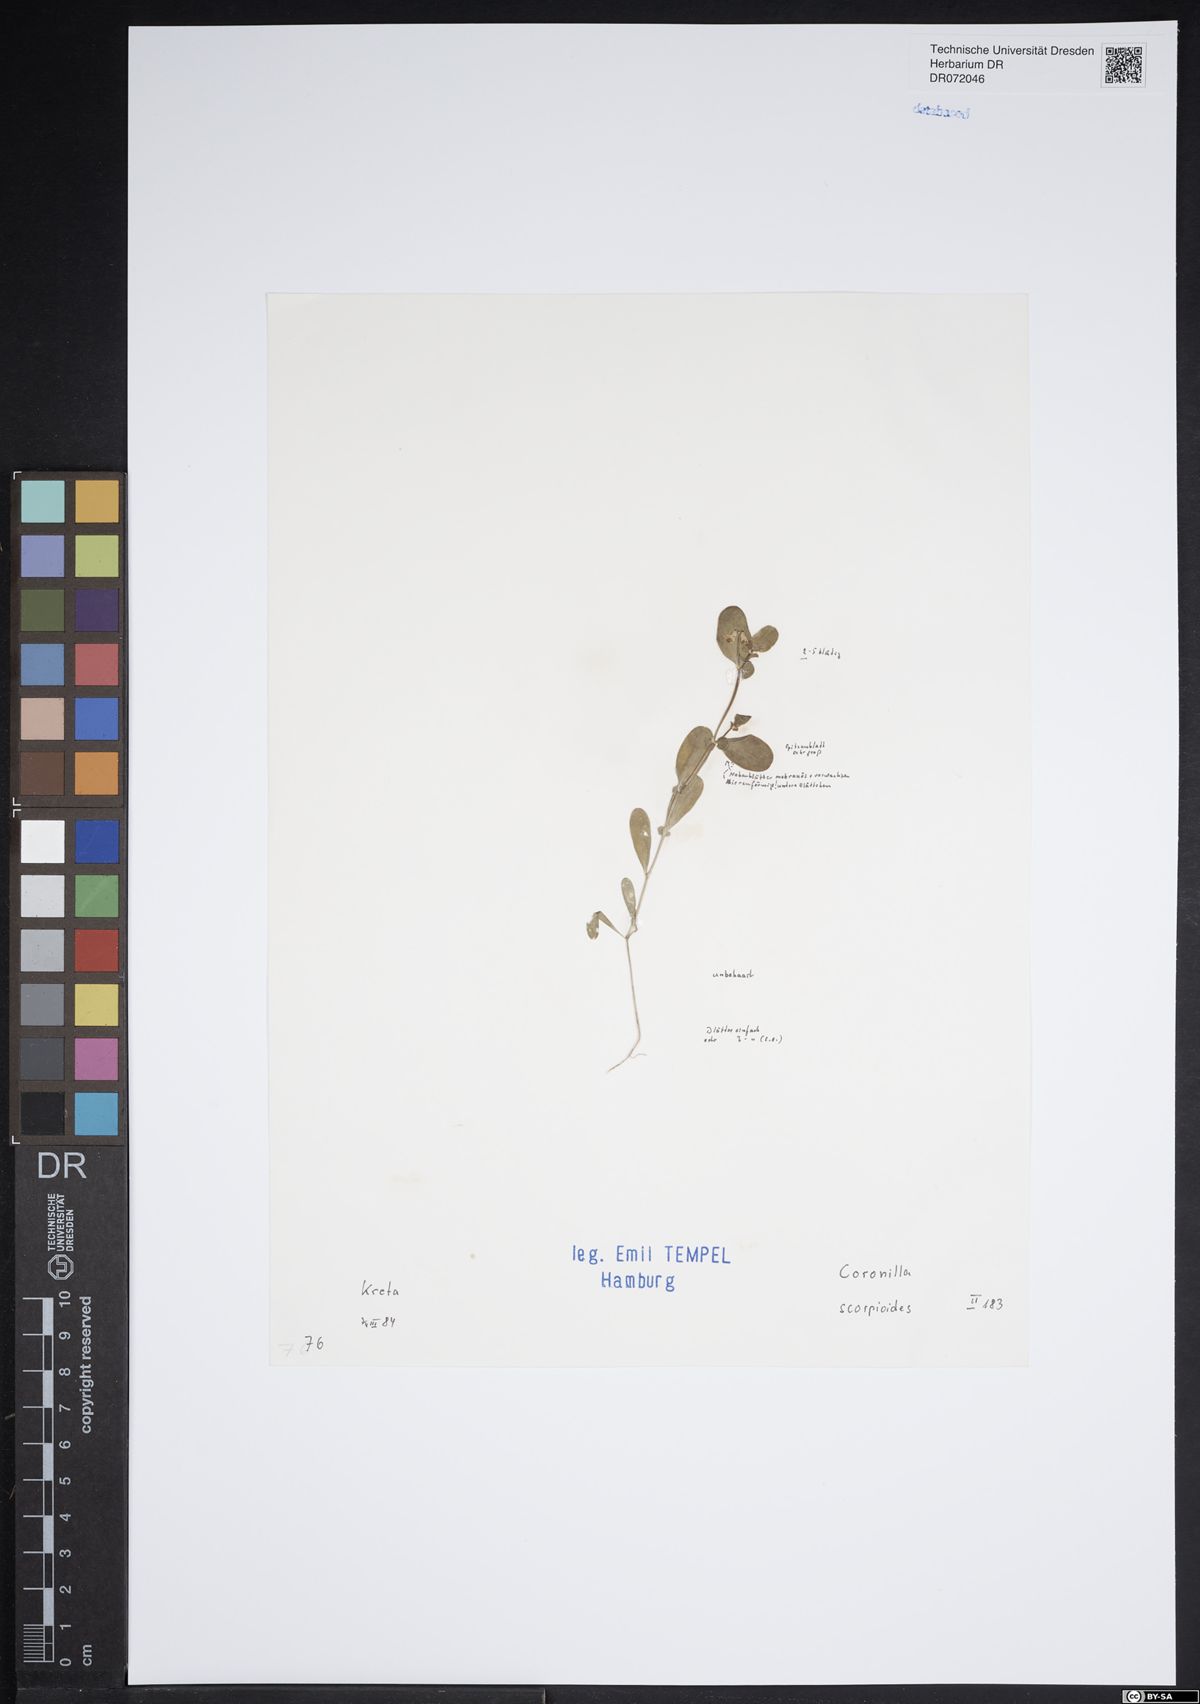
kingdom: Plantae
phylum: Tracheophyta
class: Magnoliopsida
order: Fabales
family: Fabaceae
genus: Coronilla
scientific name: Coronilla scorpioides
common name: Annual scorpion-vetch
